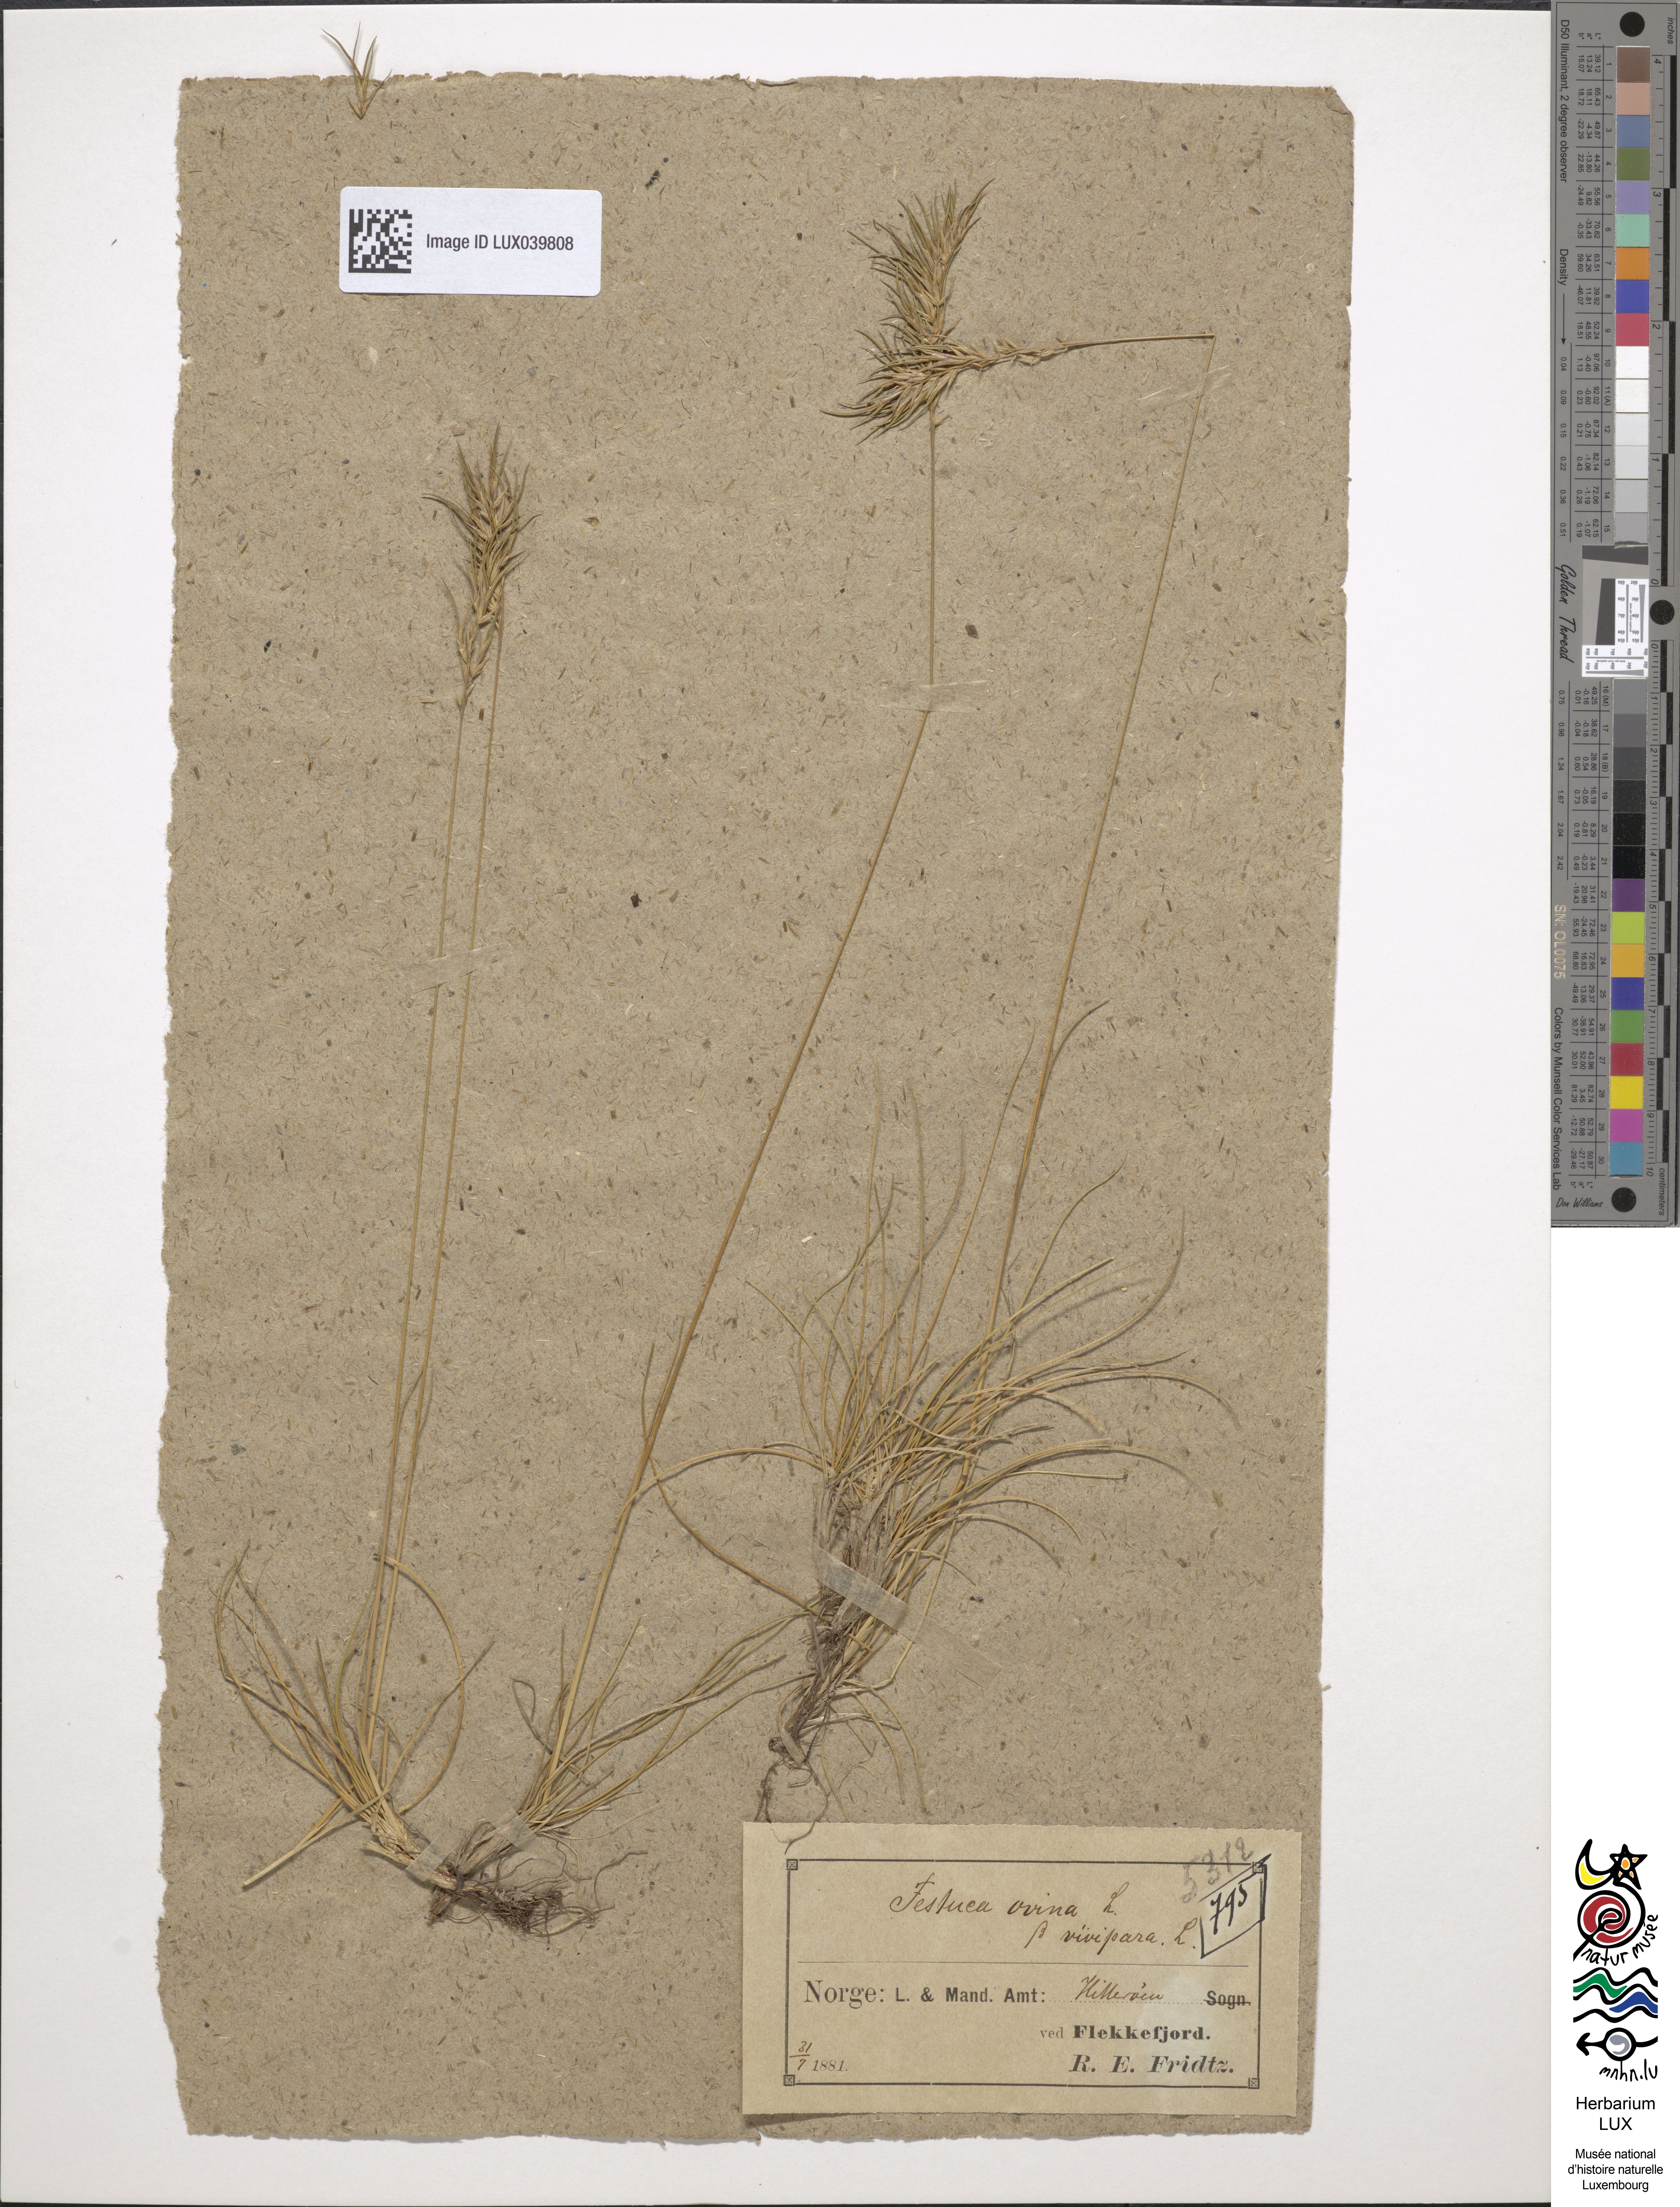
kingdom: Plantae
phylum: Tracheophyta
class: Liliopsida
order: Poales
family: Poaceae
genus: Festuca
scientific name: Festuca ovina
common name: Sheep fescue
